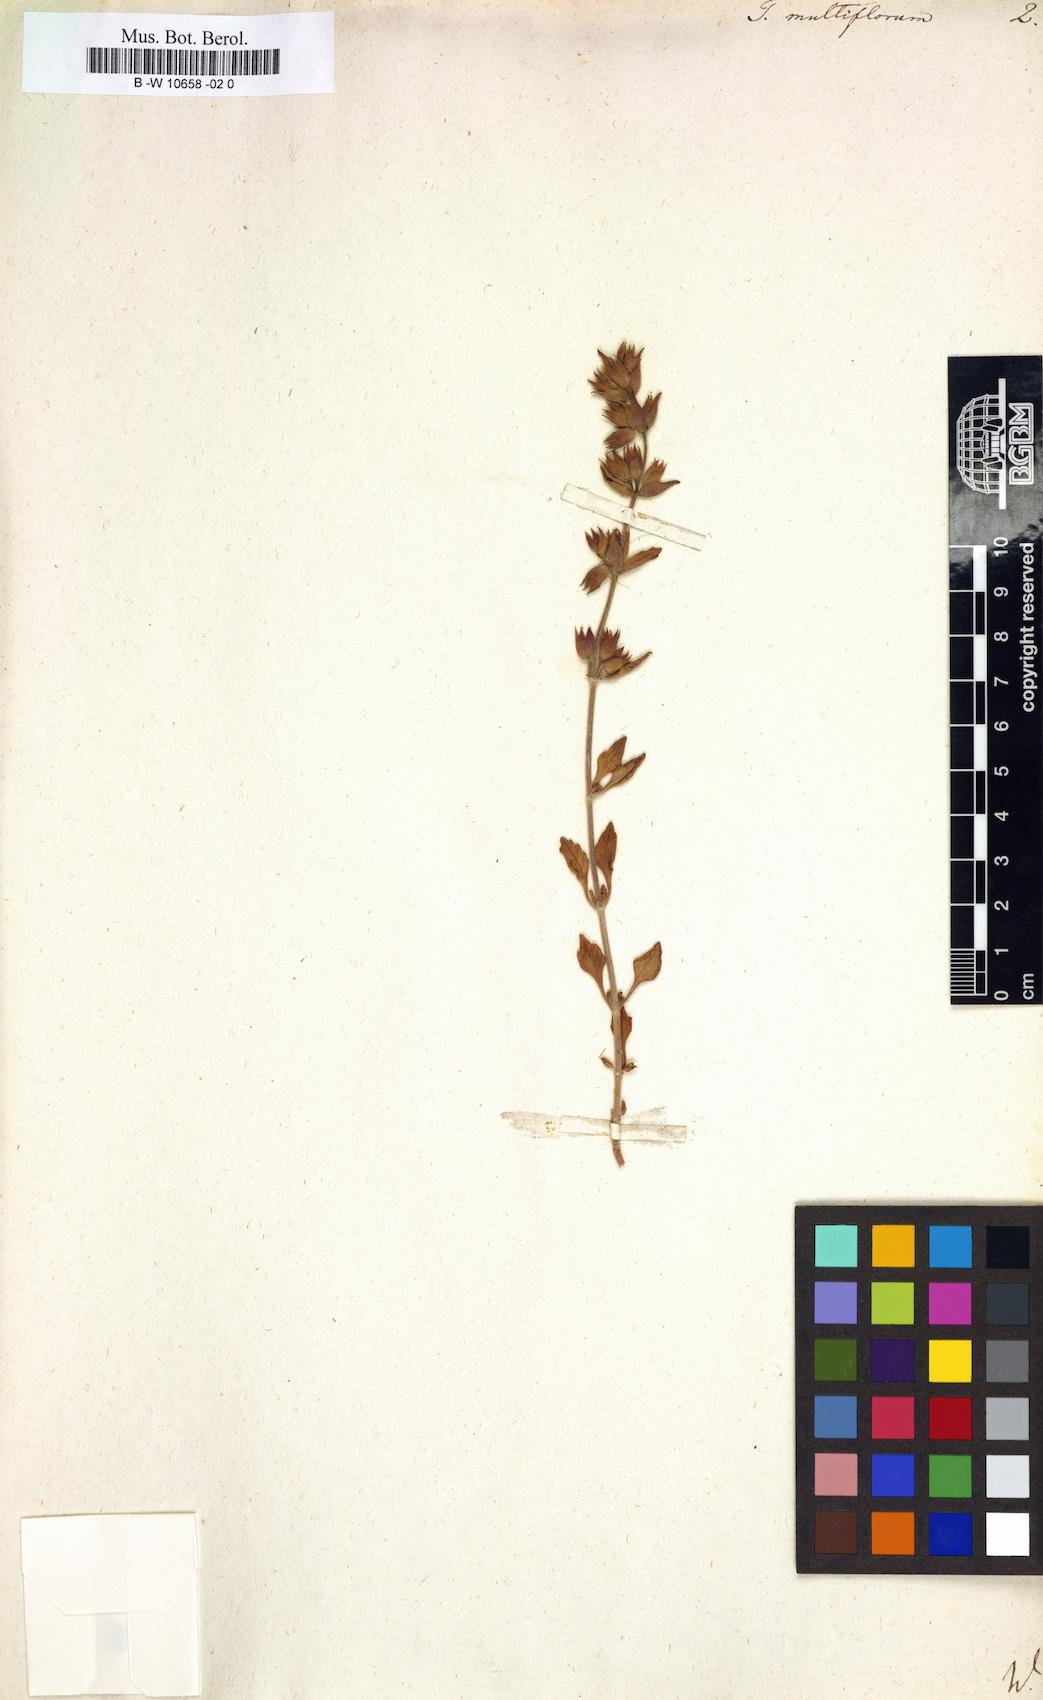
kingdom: Plantae
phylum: Tracheophyta
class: Magnoliopsida
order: Lamiales
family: Lamiaceae
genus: Teucrium
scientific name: Teucrium chamaedrys
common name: Wall germander
